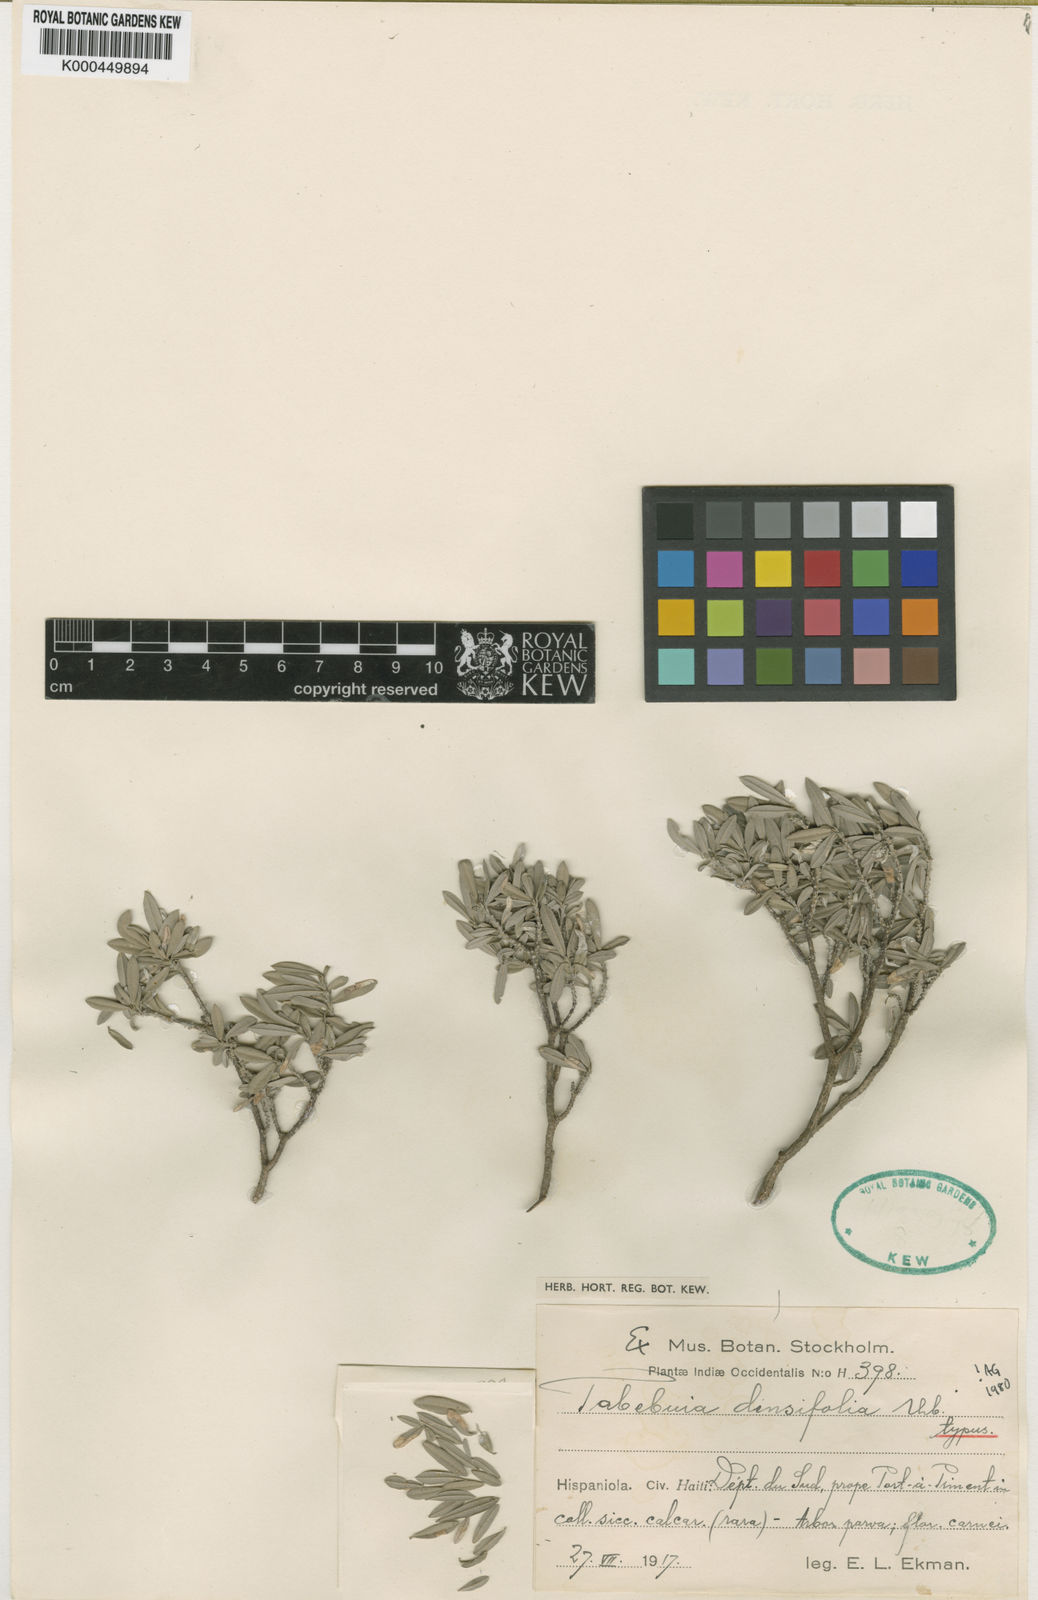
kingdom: Plantae
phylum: Tracheophyta
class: Magnoliopsida
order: Lamiales
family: Bignoniaceae
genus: Tabebuia
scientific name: Tabebuia densifolia
